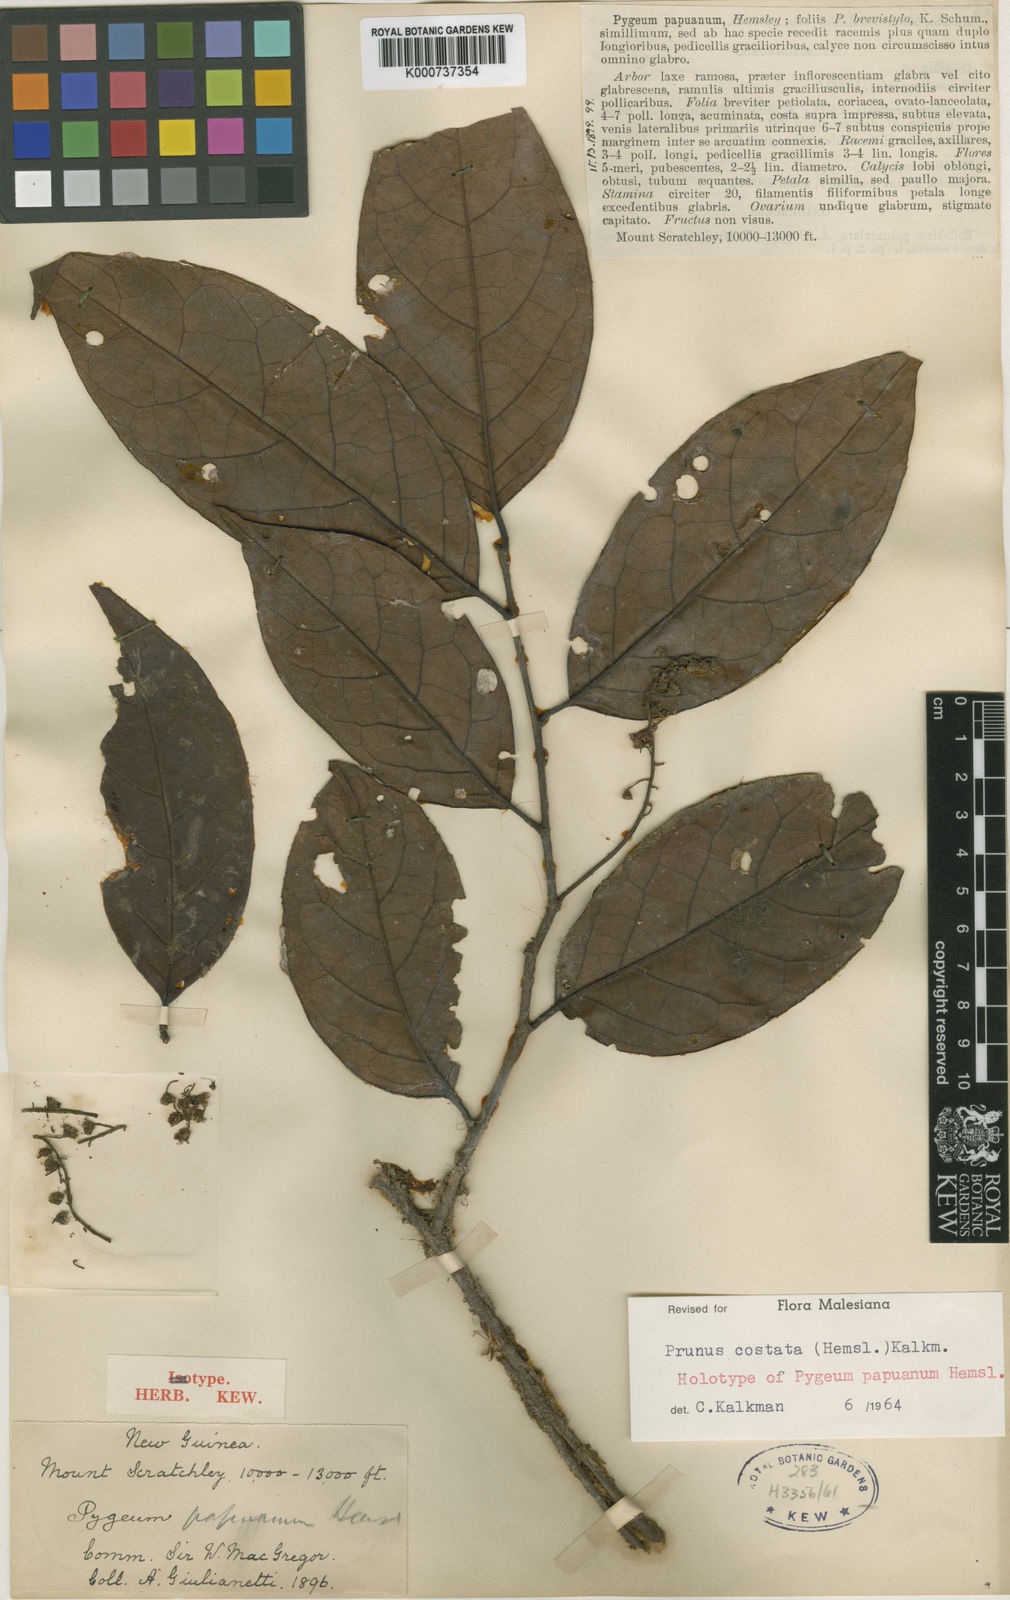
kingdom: Plantae
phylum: Tracheophyta
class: Magnoliopsida
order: Rosales
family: Rosaceae
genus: Prunus
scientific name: Prunus costata
